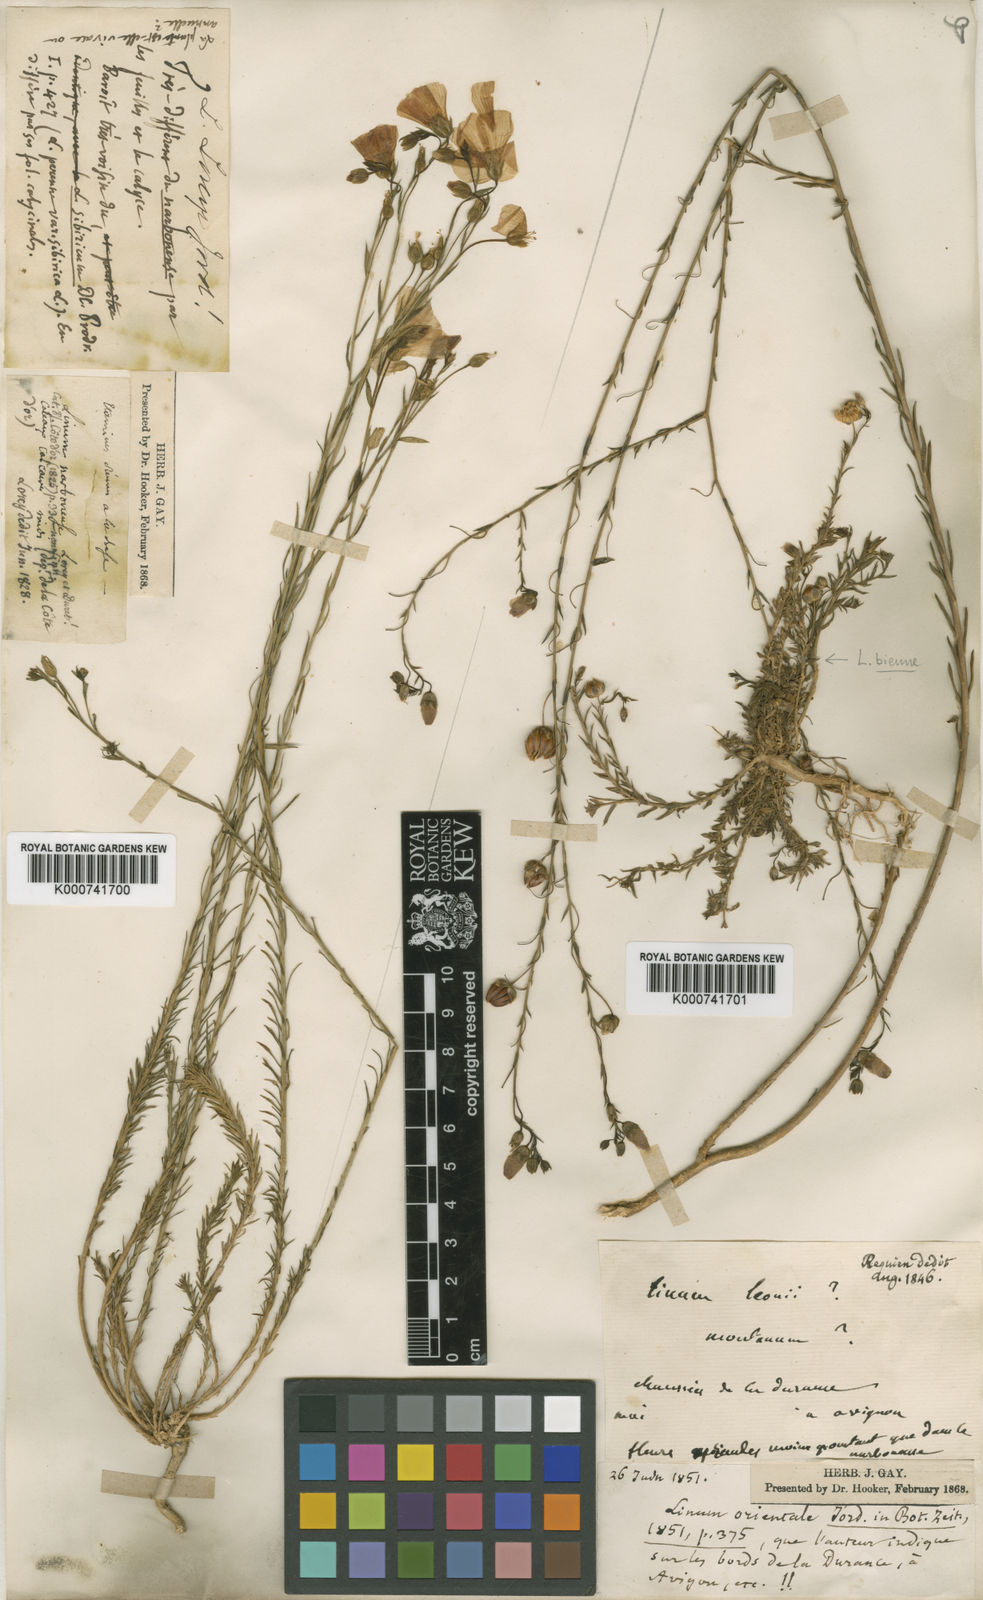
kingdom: Plantae
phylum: Tracheophyta
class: Magnoliopsida
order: Malpighiales
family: Linaceae
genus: Linum
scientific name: Linum alpinum
